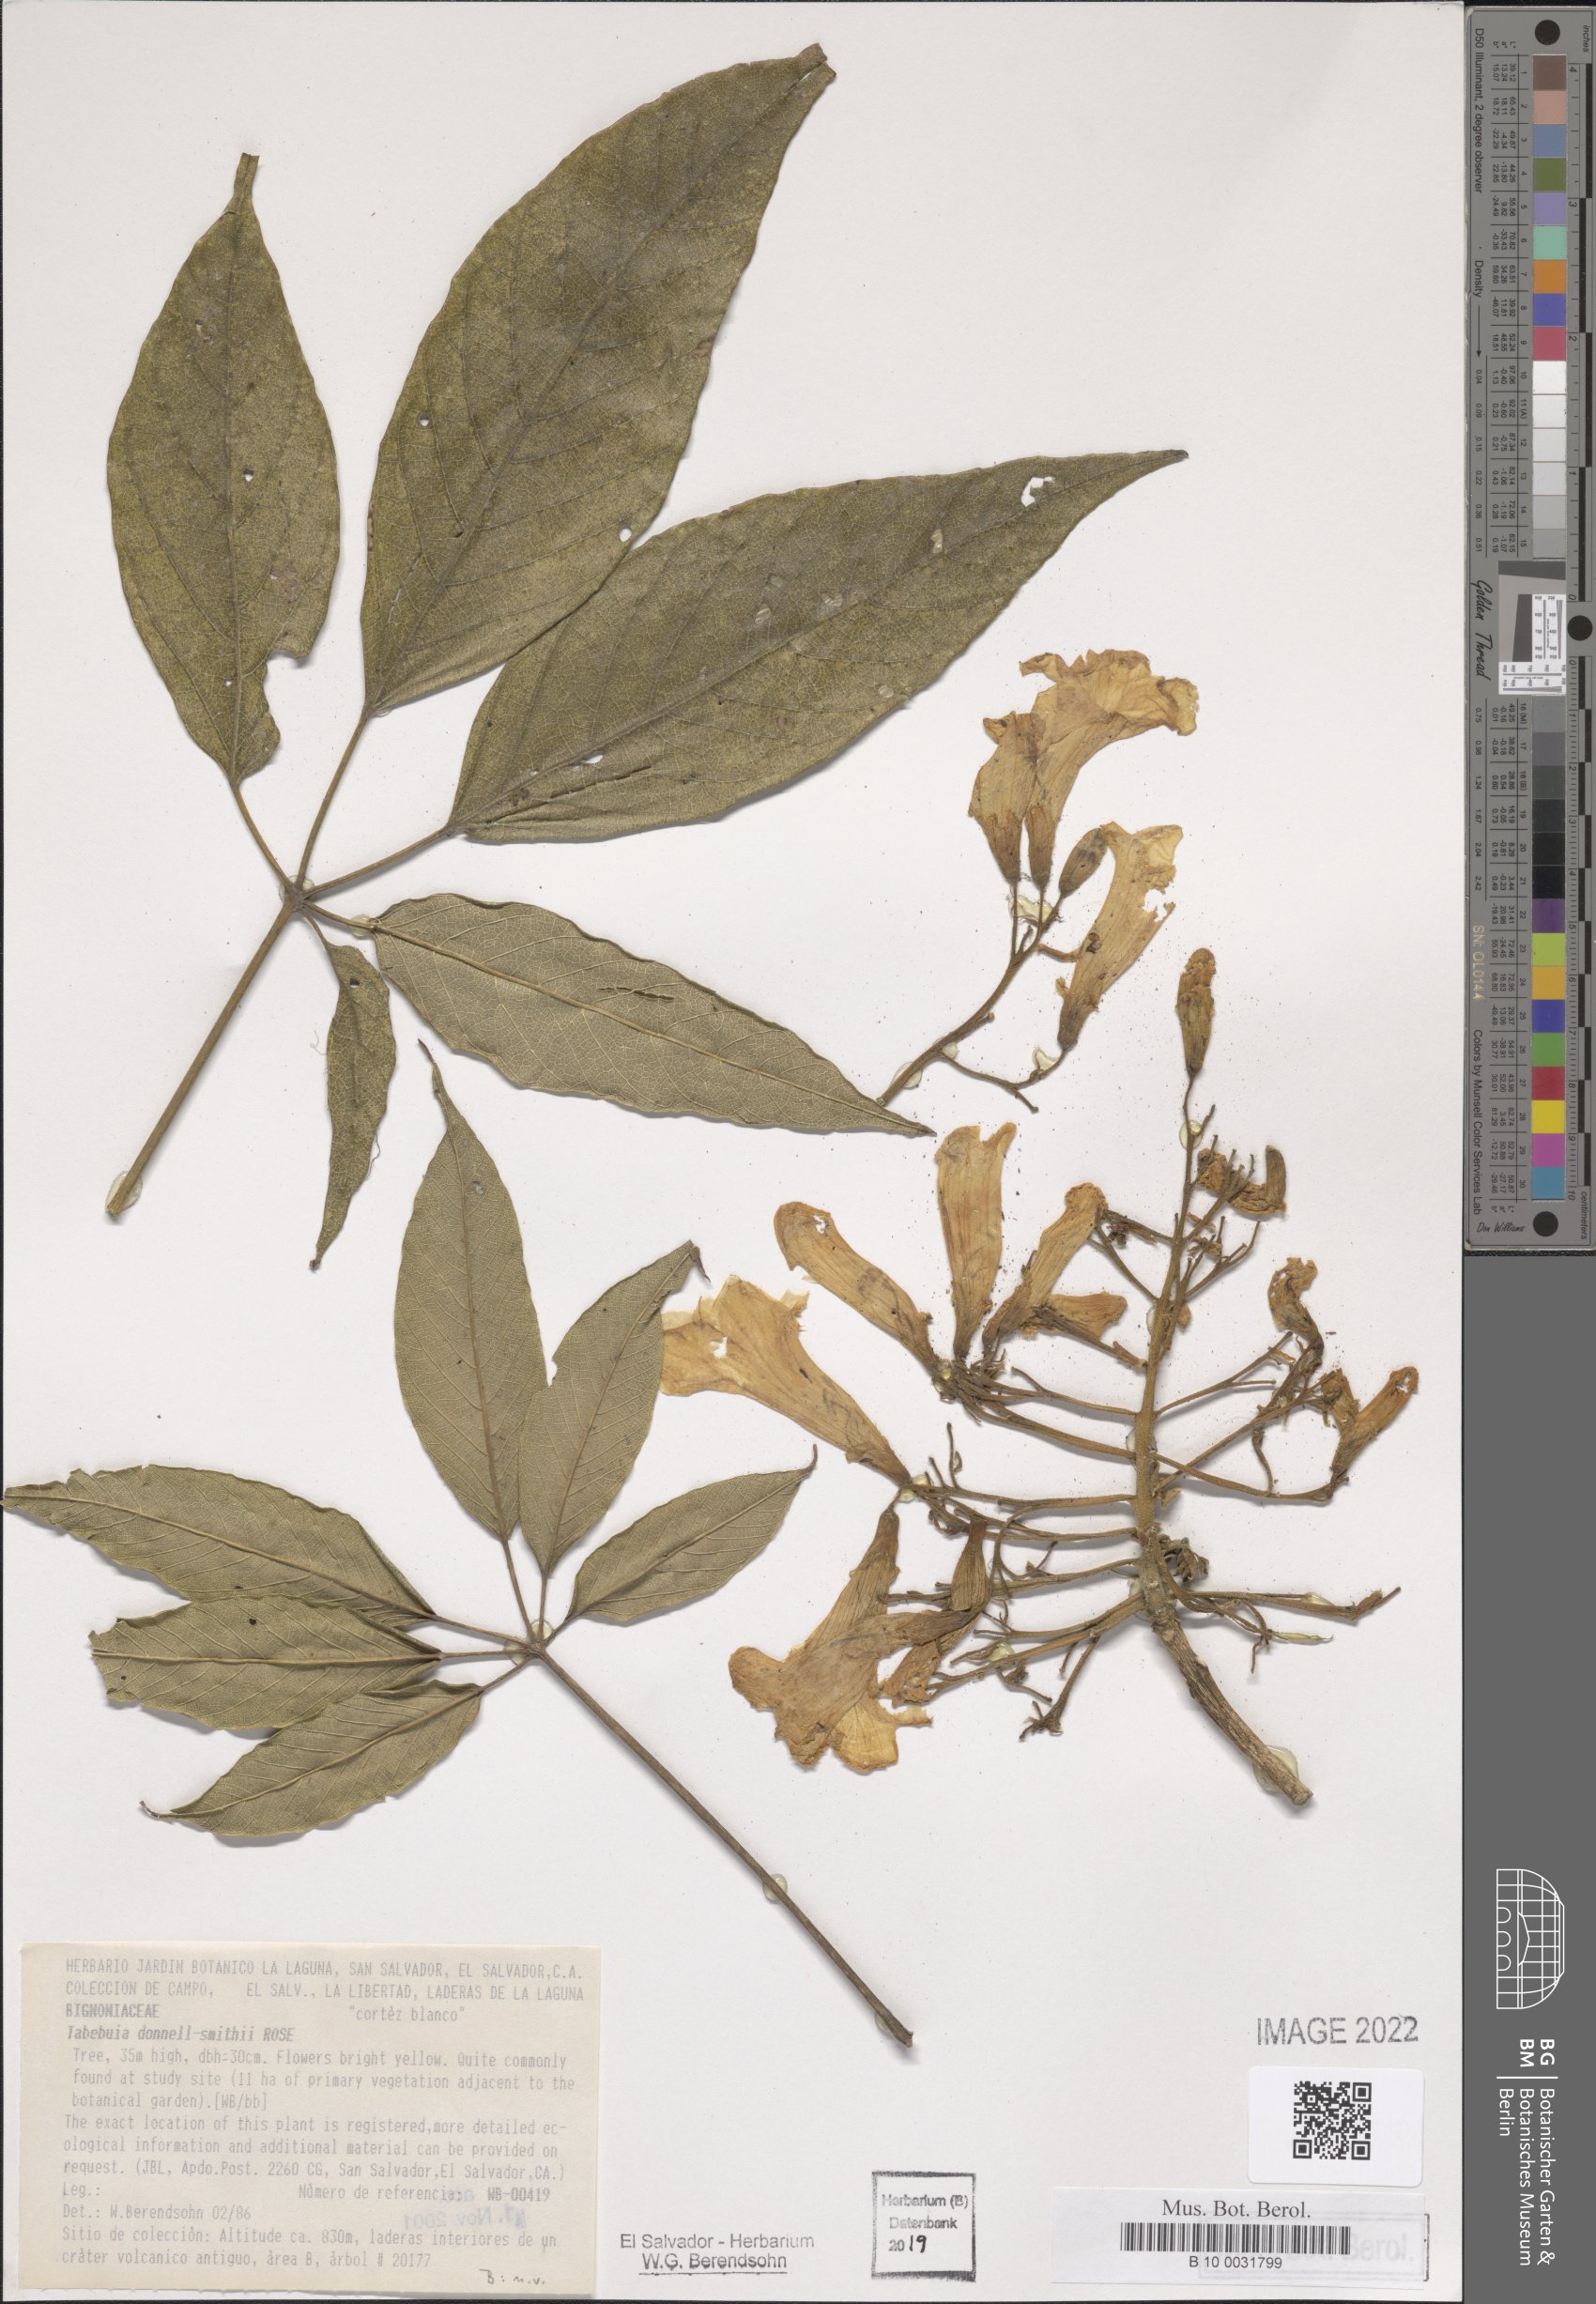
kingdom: Plantae
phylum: Tracheophyta
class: Magnoliopsida
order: Lamiales
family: Bignoniaceae
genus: Roseodendron
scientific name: Roseodendron donnell-smithii
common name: White-mahogany
